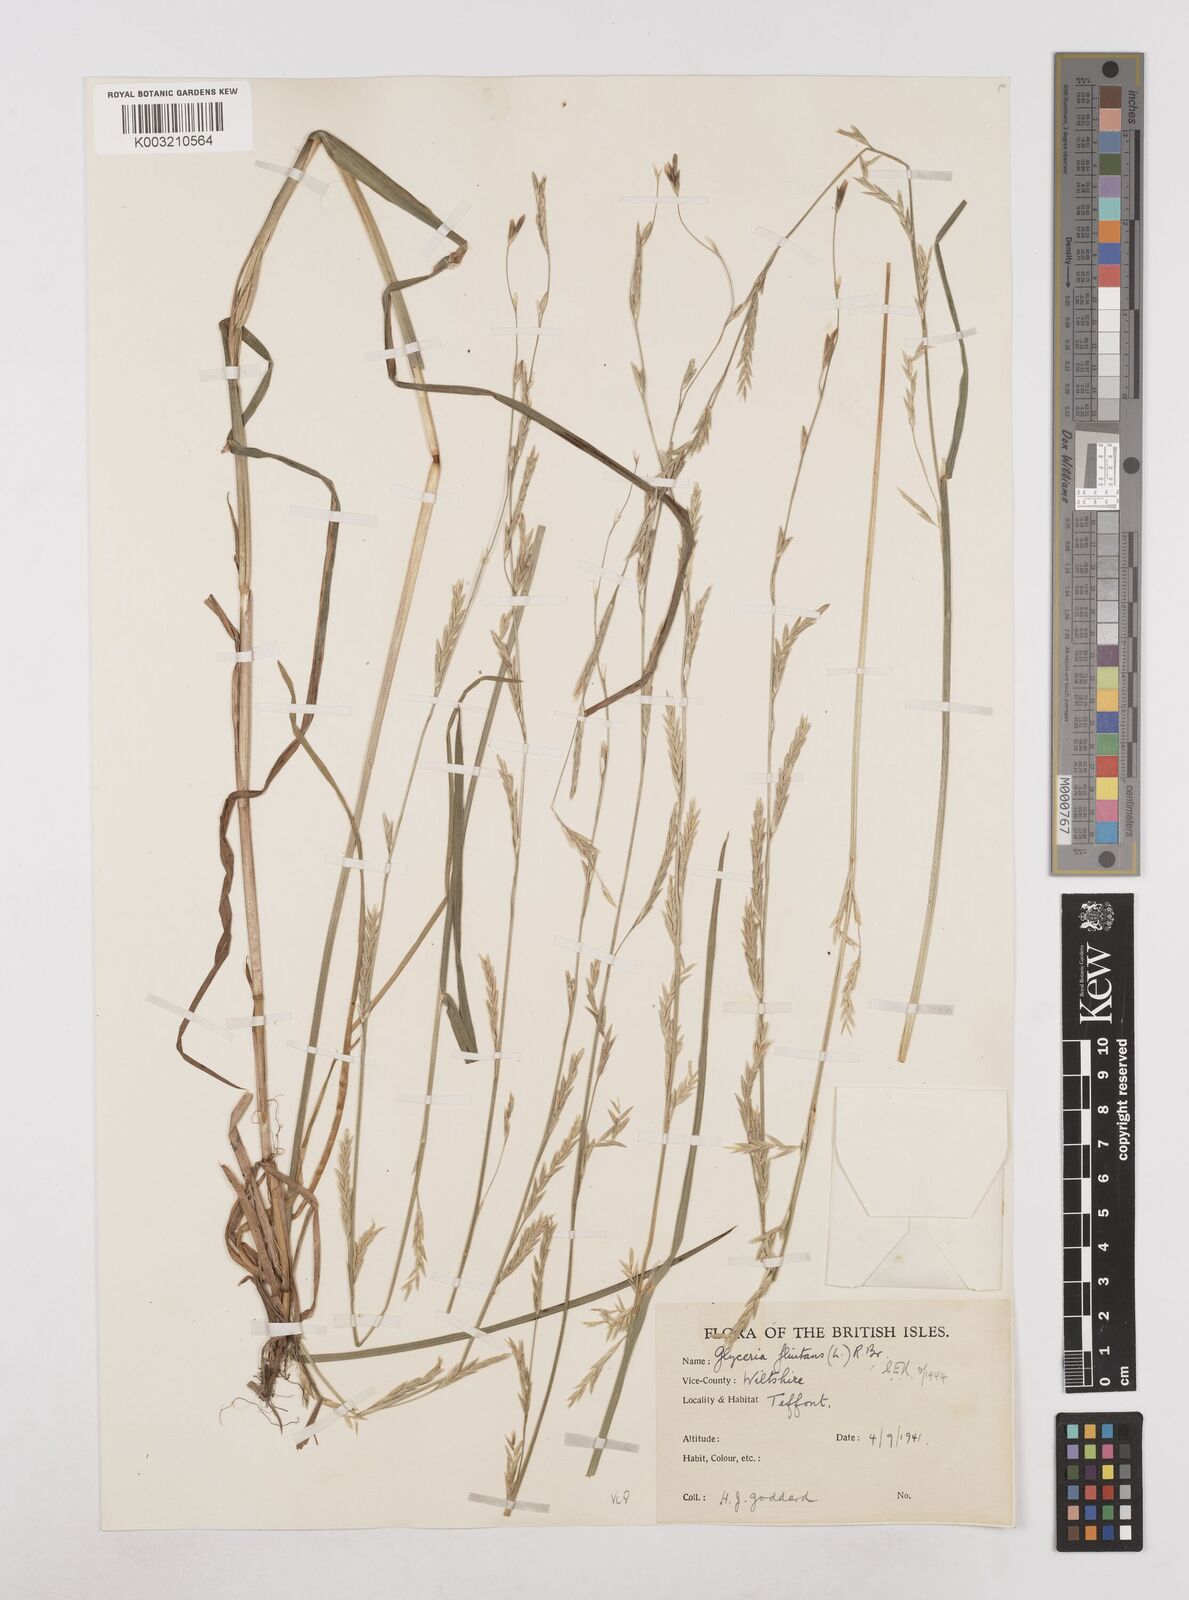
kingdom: Plantae
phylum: Tracheophyta
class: Liliopsida
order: Poales
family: Poaceae
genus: Glyceria
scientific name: Glyceria fluitans
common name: Floating sweet-grass
